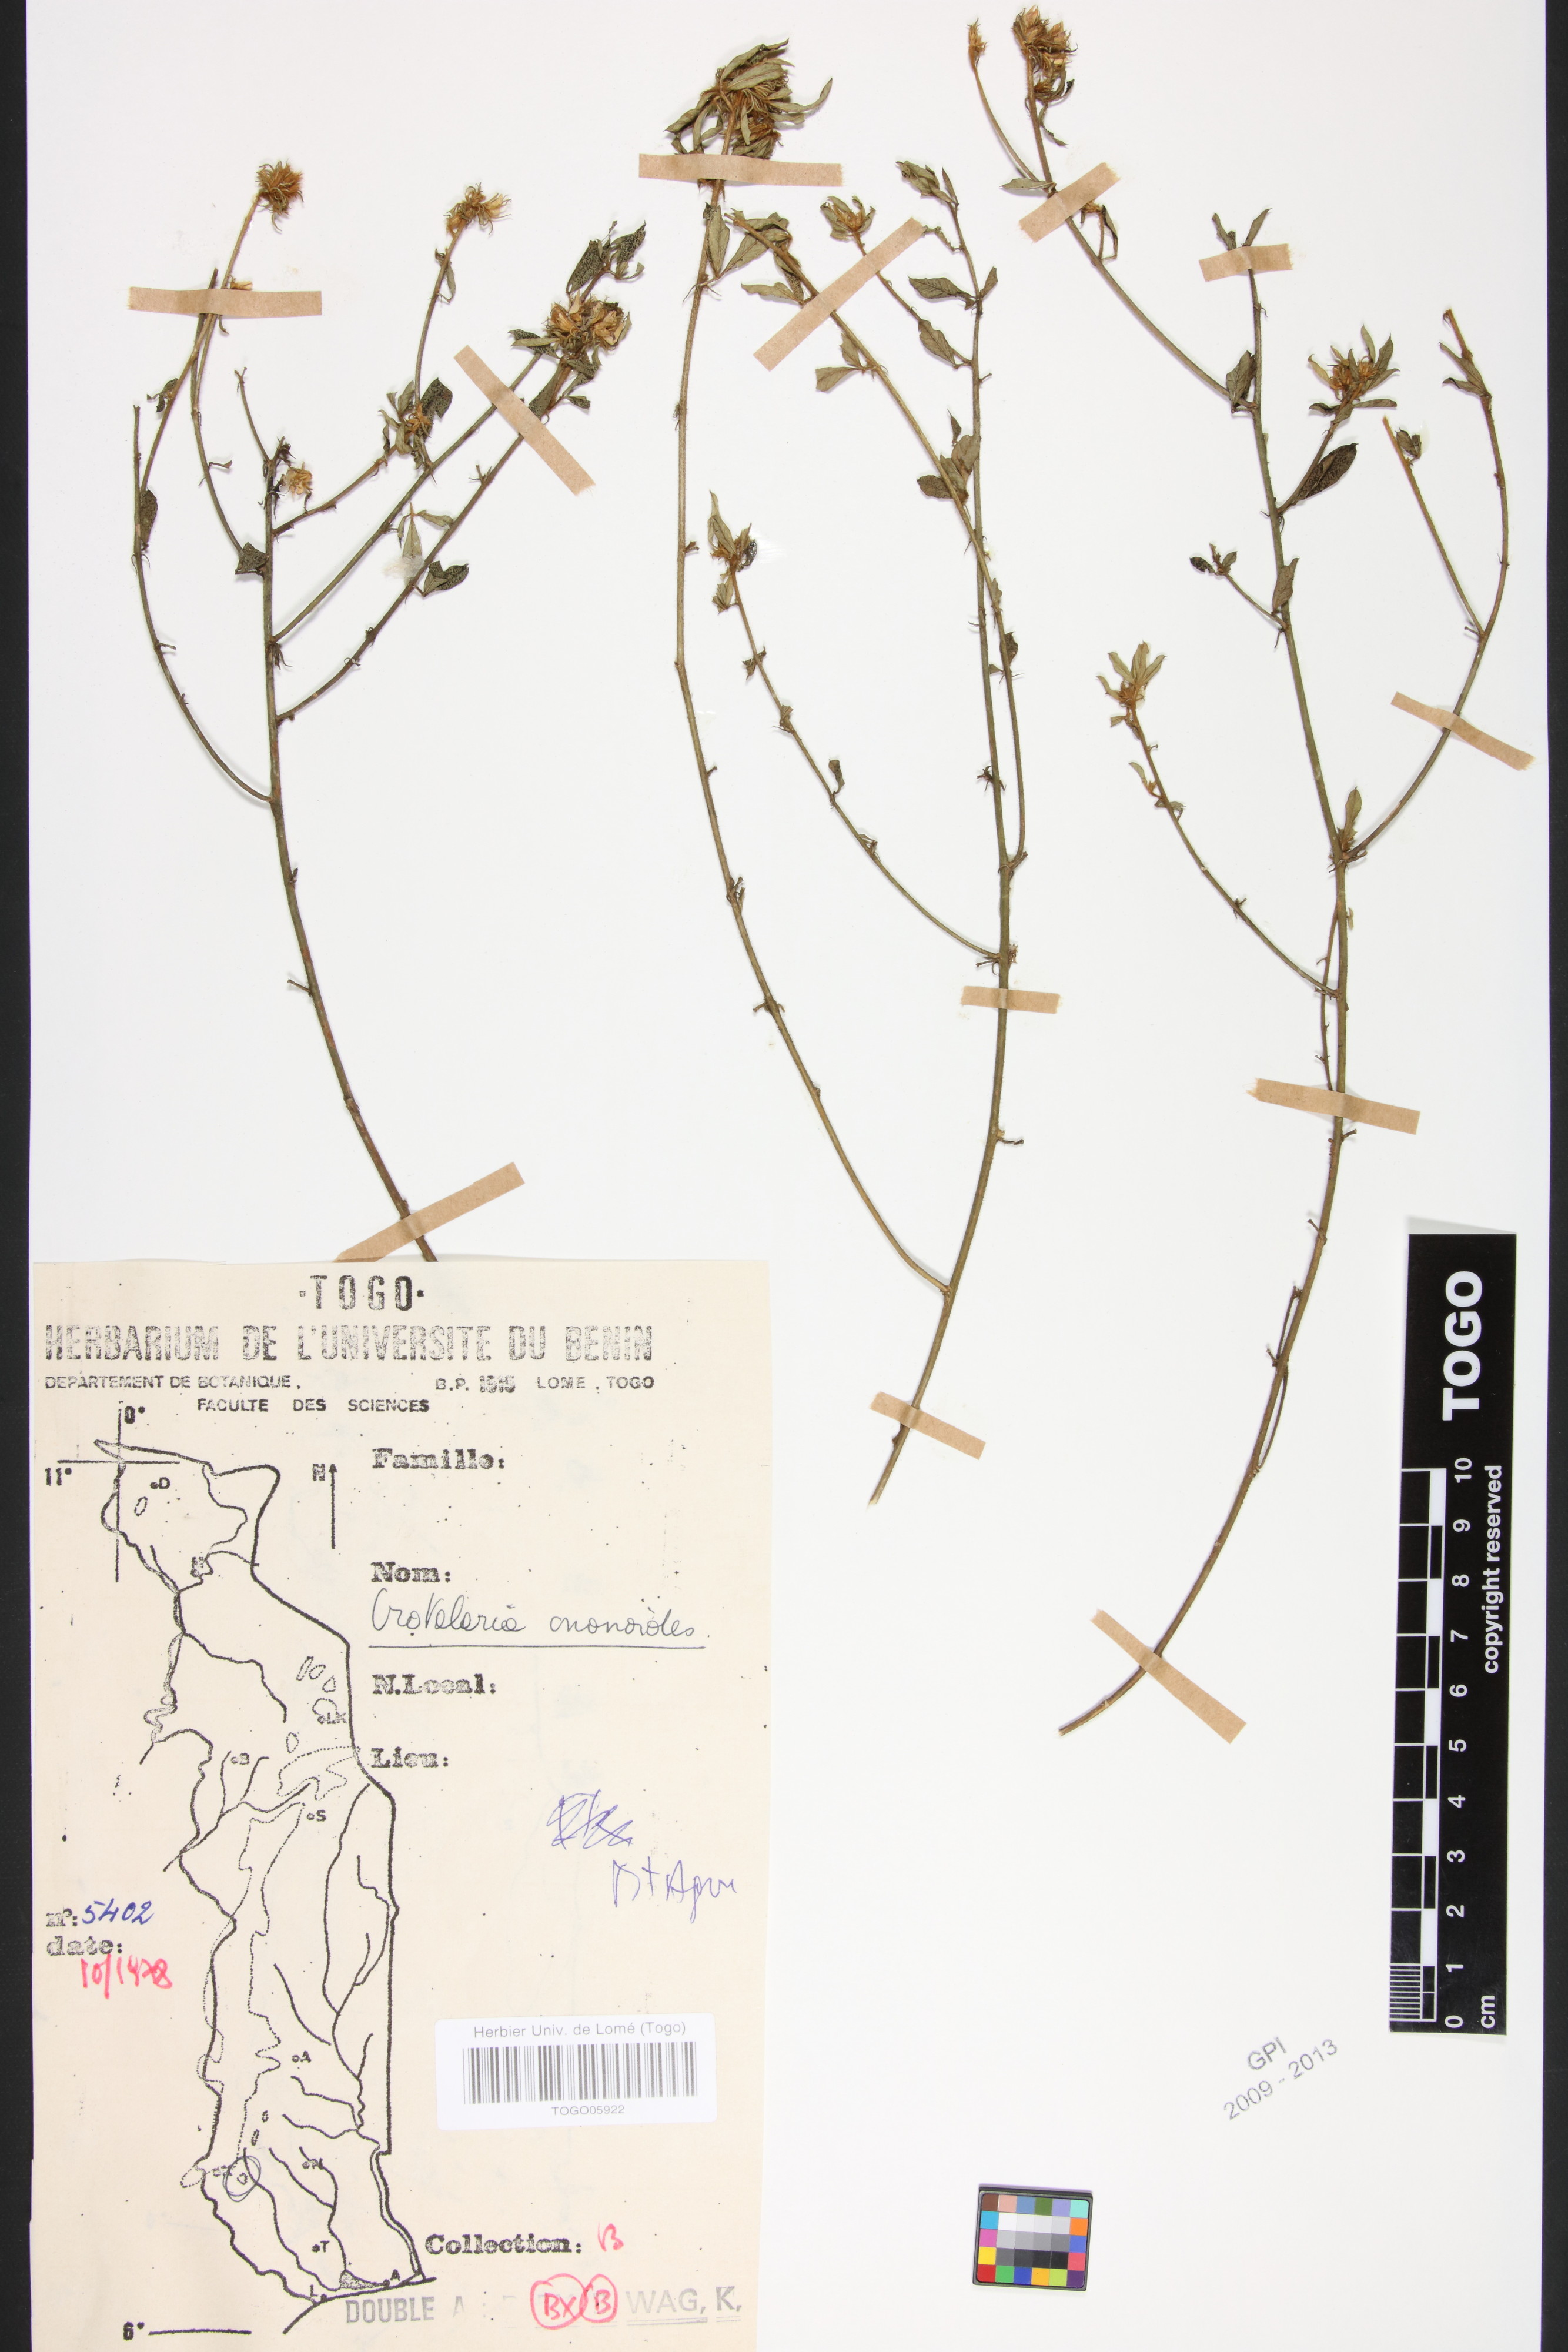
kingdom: Plantae
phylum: Tracheophyta
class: Magnoliopsida
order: Fabales
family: Fabaceae
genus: Crotalaria
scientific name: Crotalaria ononoides
